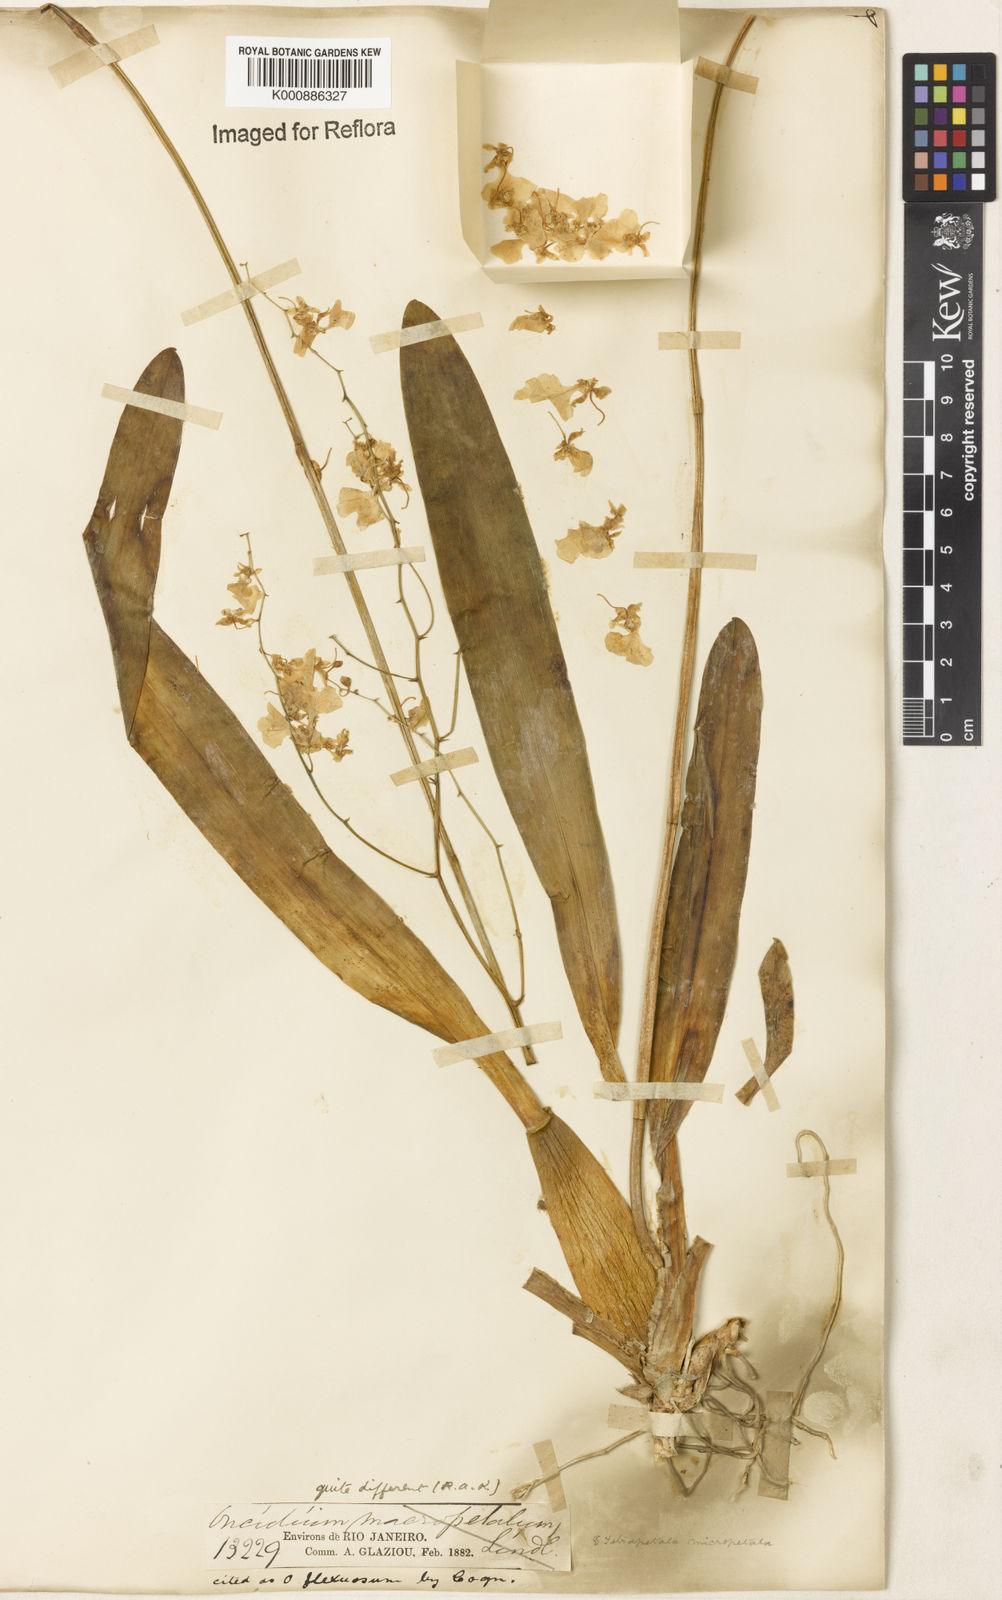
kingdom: Plantae
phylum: Tracheophyta
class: Liliopsida
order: Asparagales
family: Orchidaceae
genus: Gomesa
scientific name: Gomesa flexuosa
